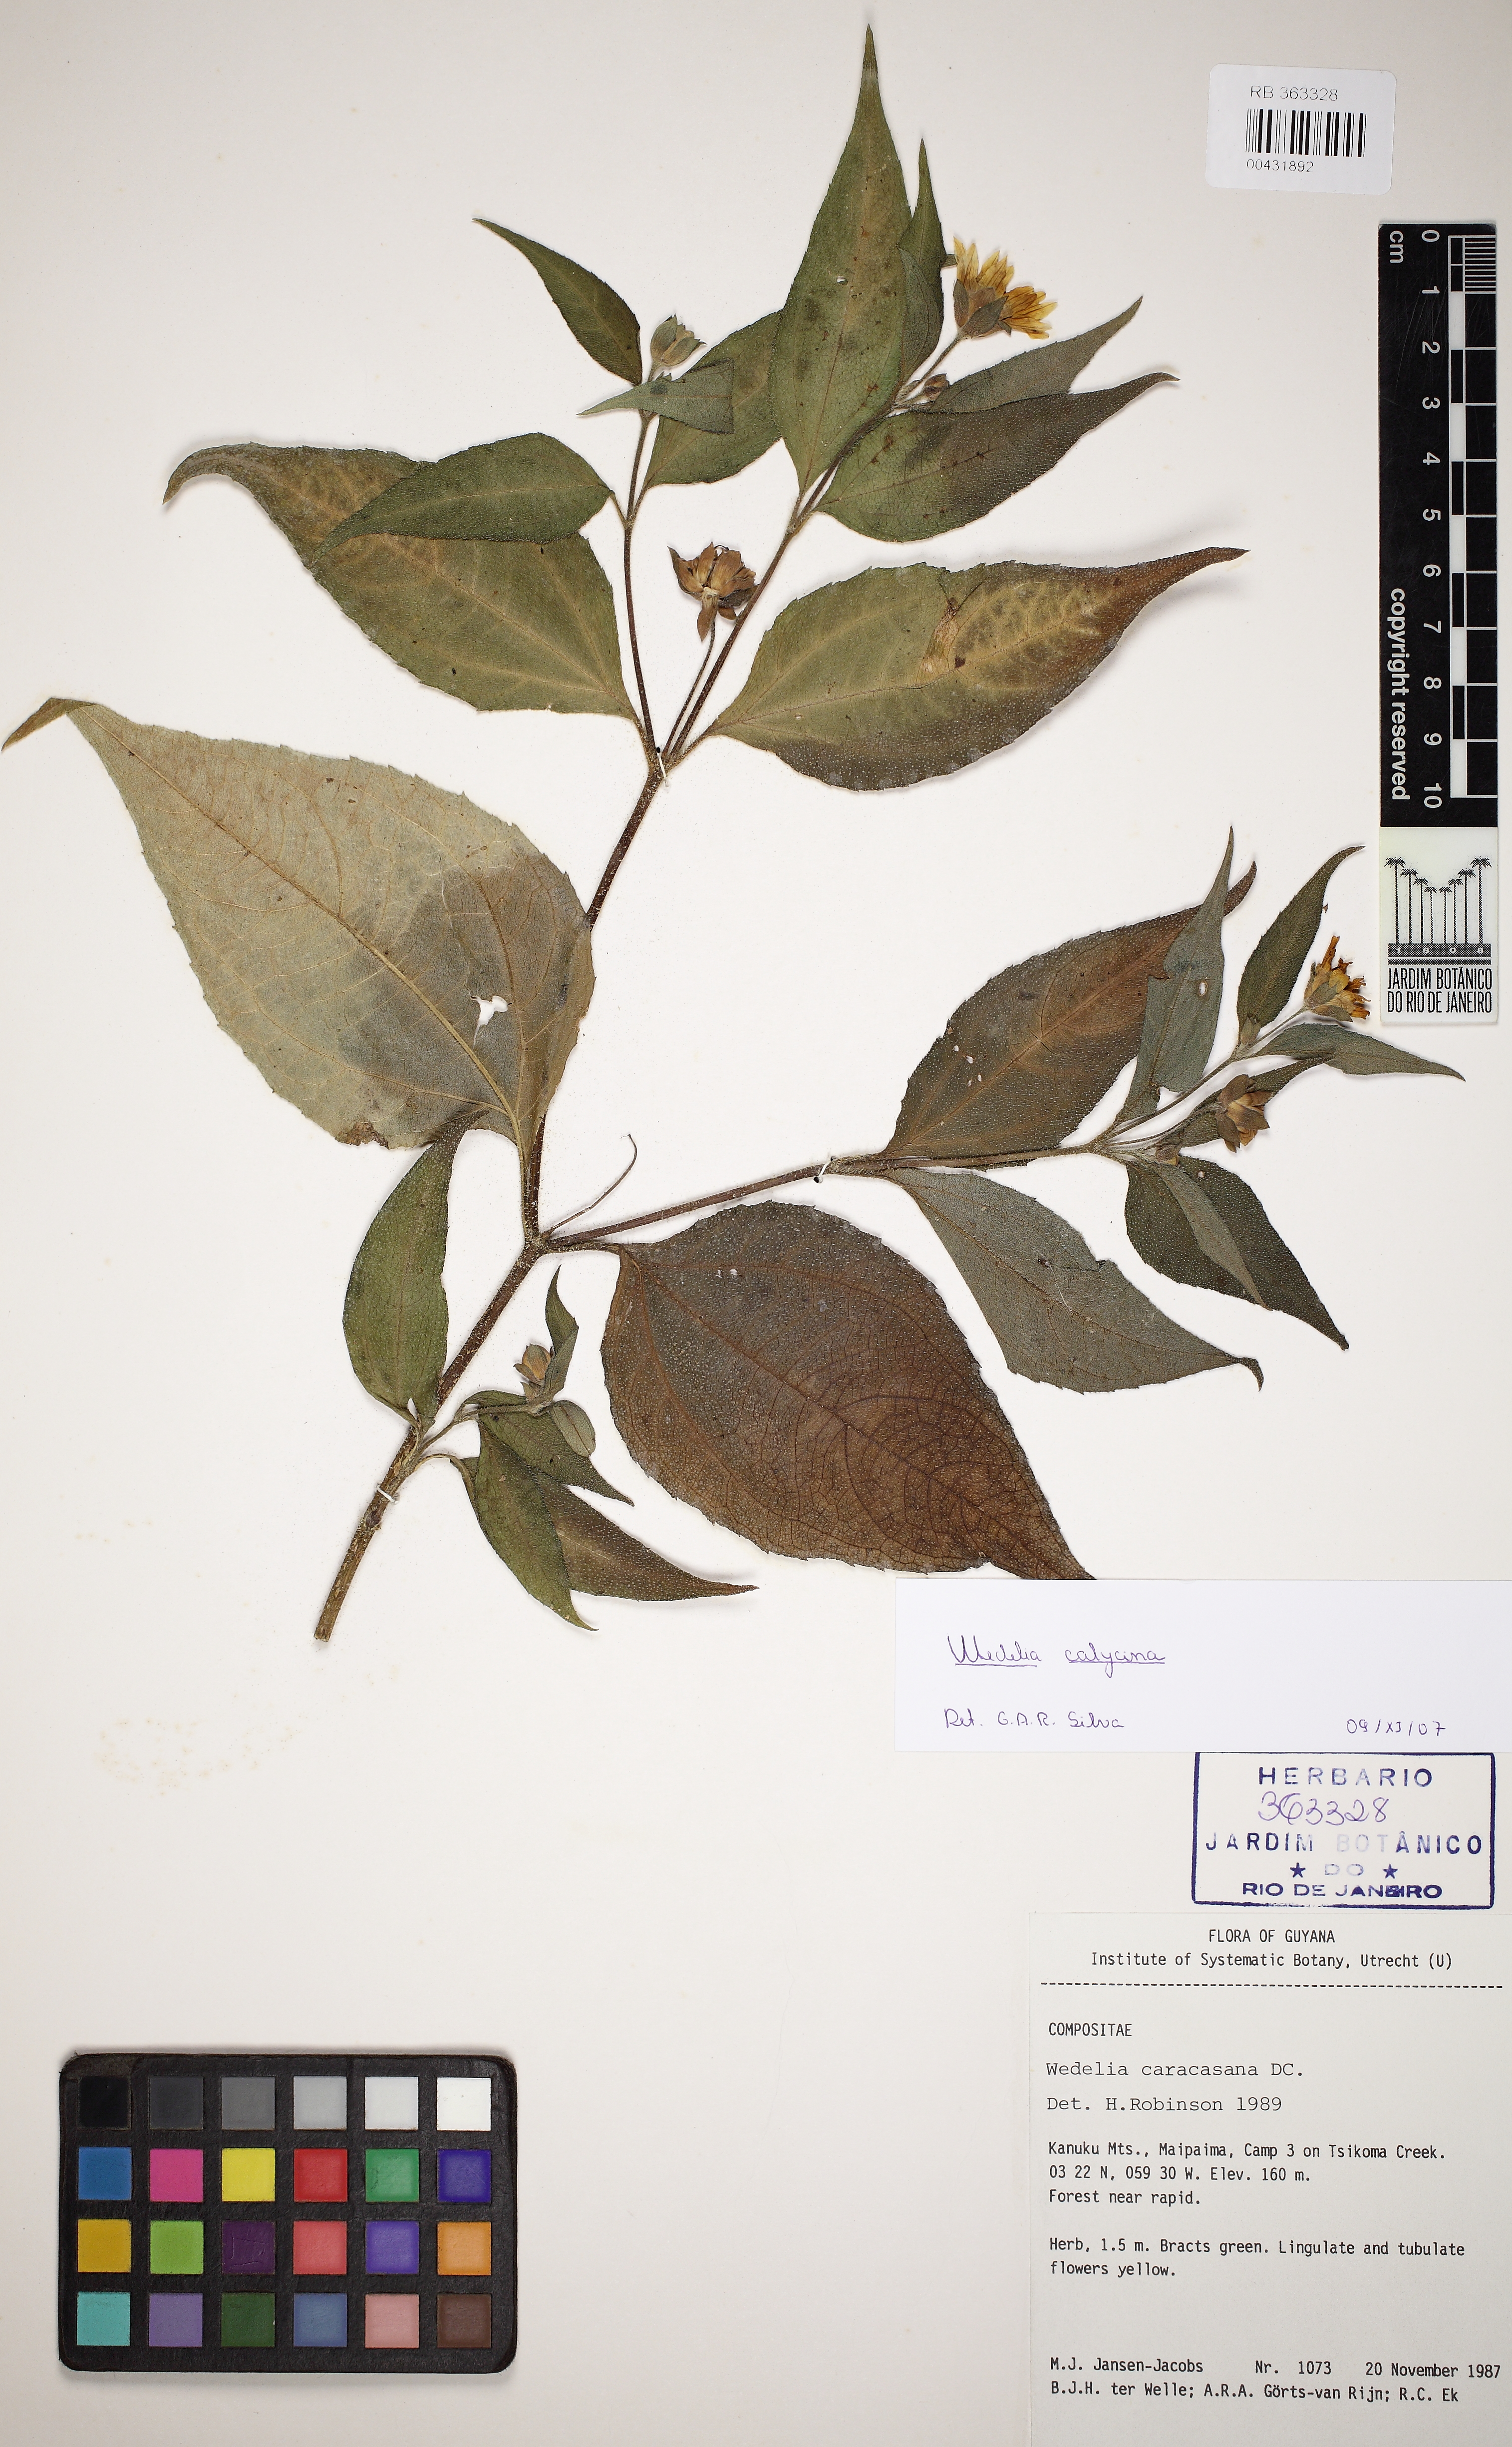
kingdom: Plantae
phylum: Tracheophyta
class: Magnoliopsida
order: Asterales
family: Asteraceae
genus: Wedelia
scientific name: Wedelia calycina
